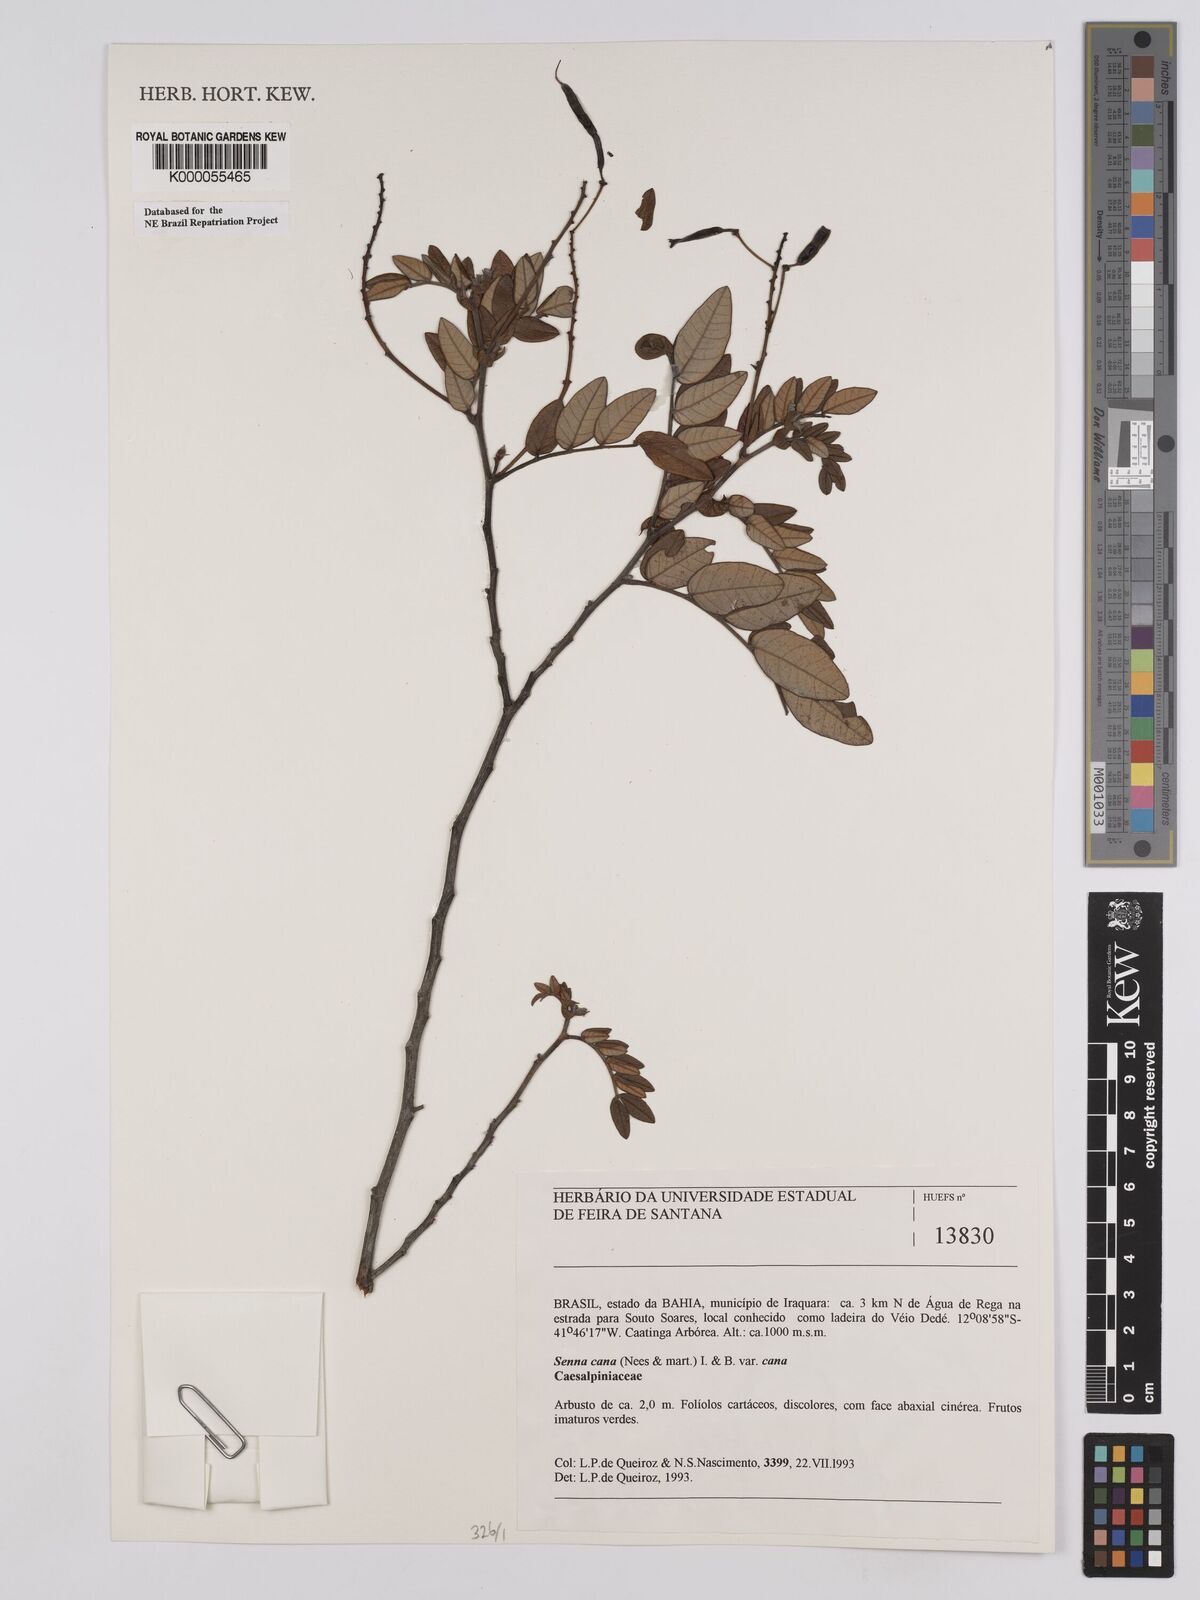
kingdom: Plantae
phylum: Tracheophyta
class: Magnoliopsida
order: Fabales
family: Fabaceae
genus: Senna
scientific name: Senna cana
